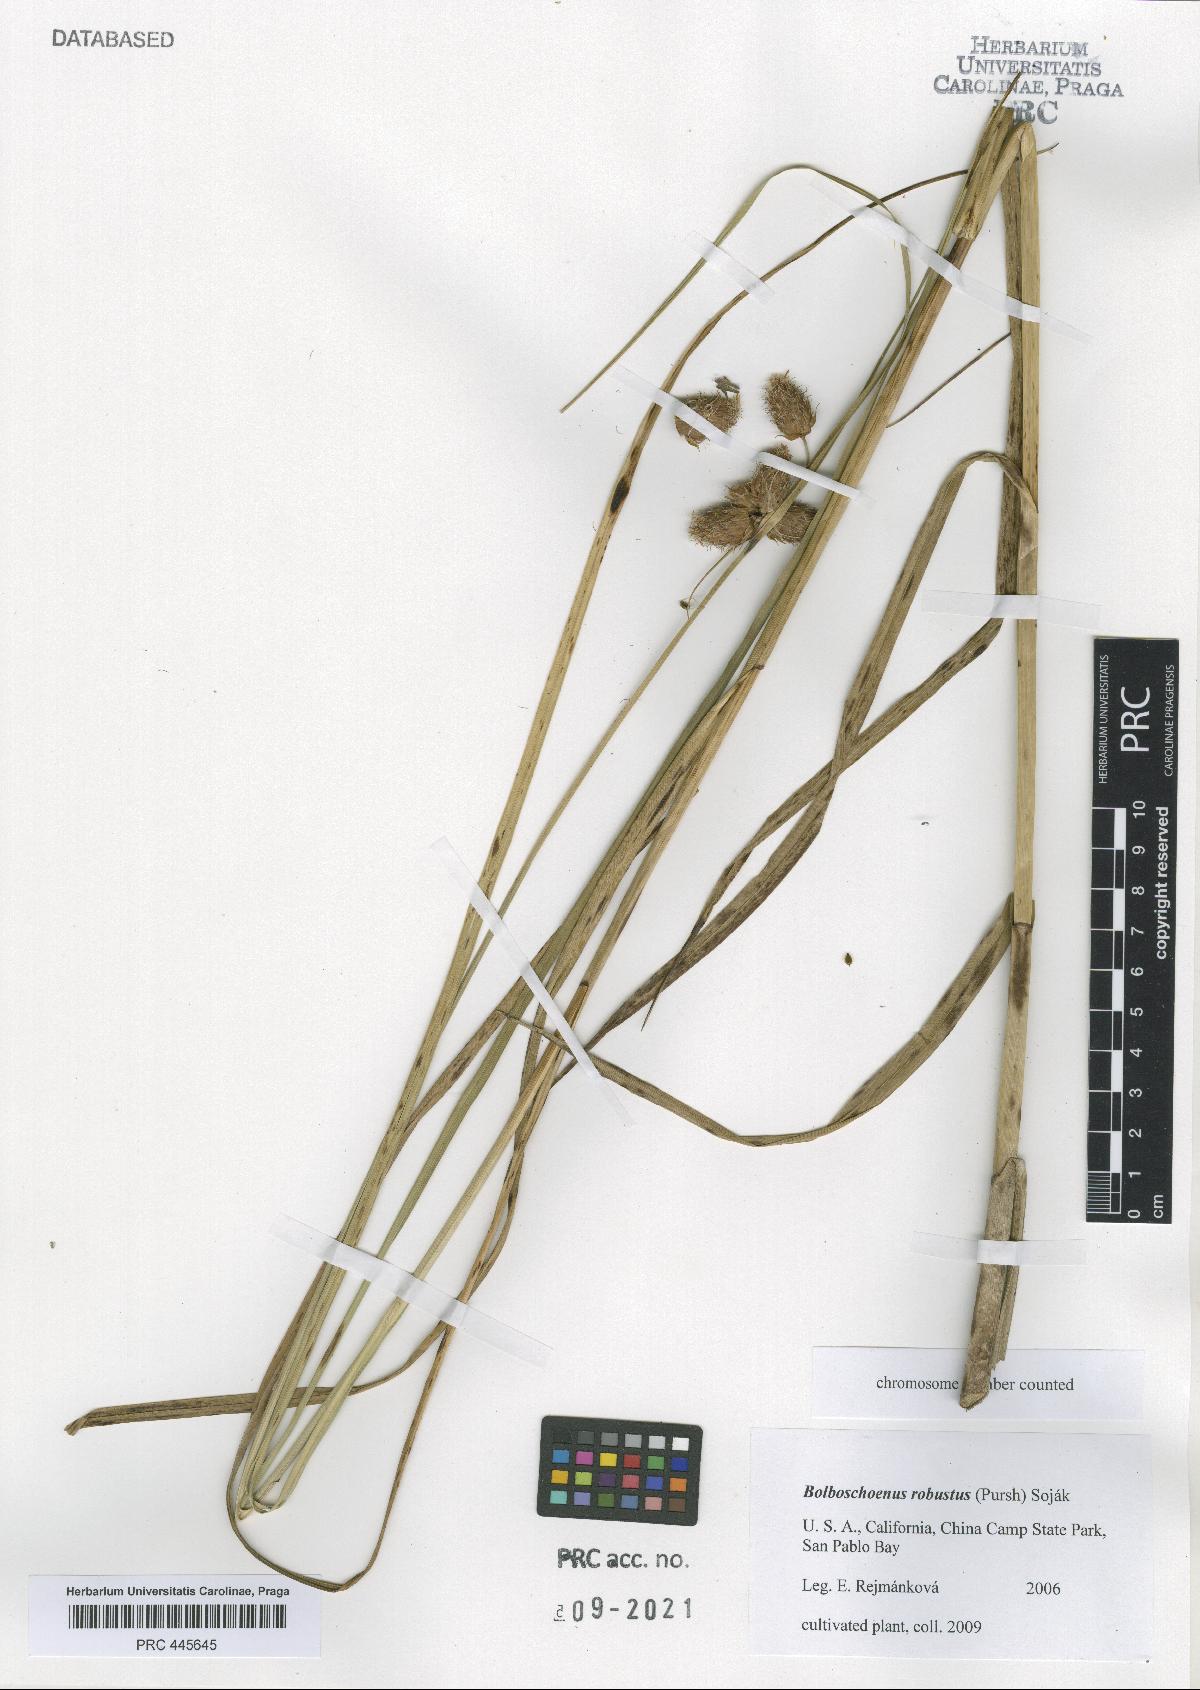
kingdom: Plantae
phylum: Tracheophyta
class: Liliopsida
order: Poales
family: Cyperaceae
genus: Bolboschoenus
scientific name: Bolboschoenus robustus
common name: Seacoast bulrush
